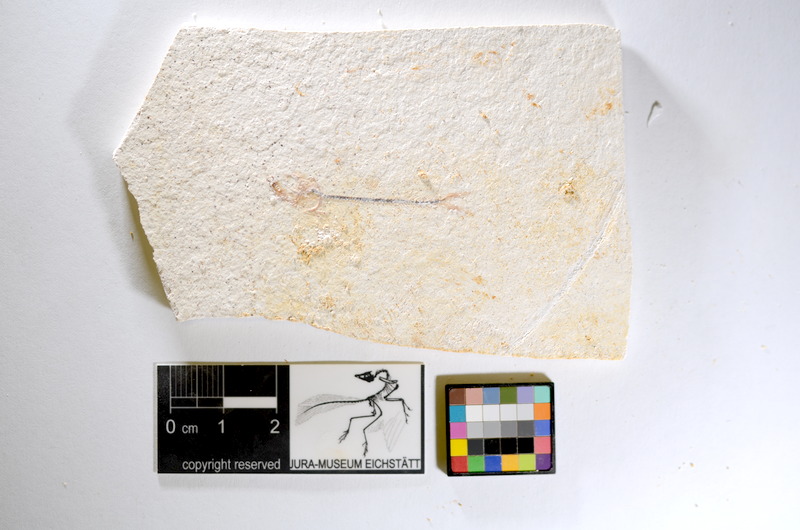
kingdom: Animalia
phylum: Chordata
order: Salmoniformes
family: Orthogonikleithridae
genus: Orthogonikleithrus
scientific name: Orthogonikleithrus hoelli
